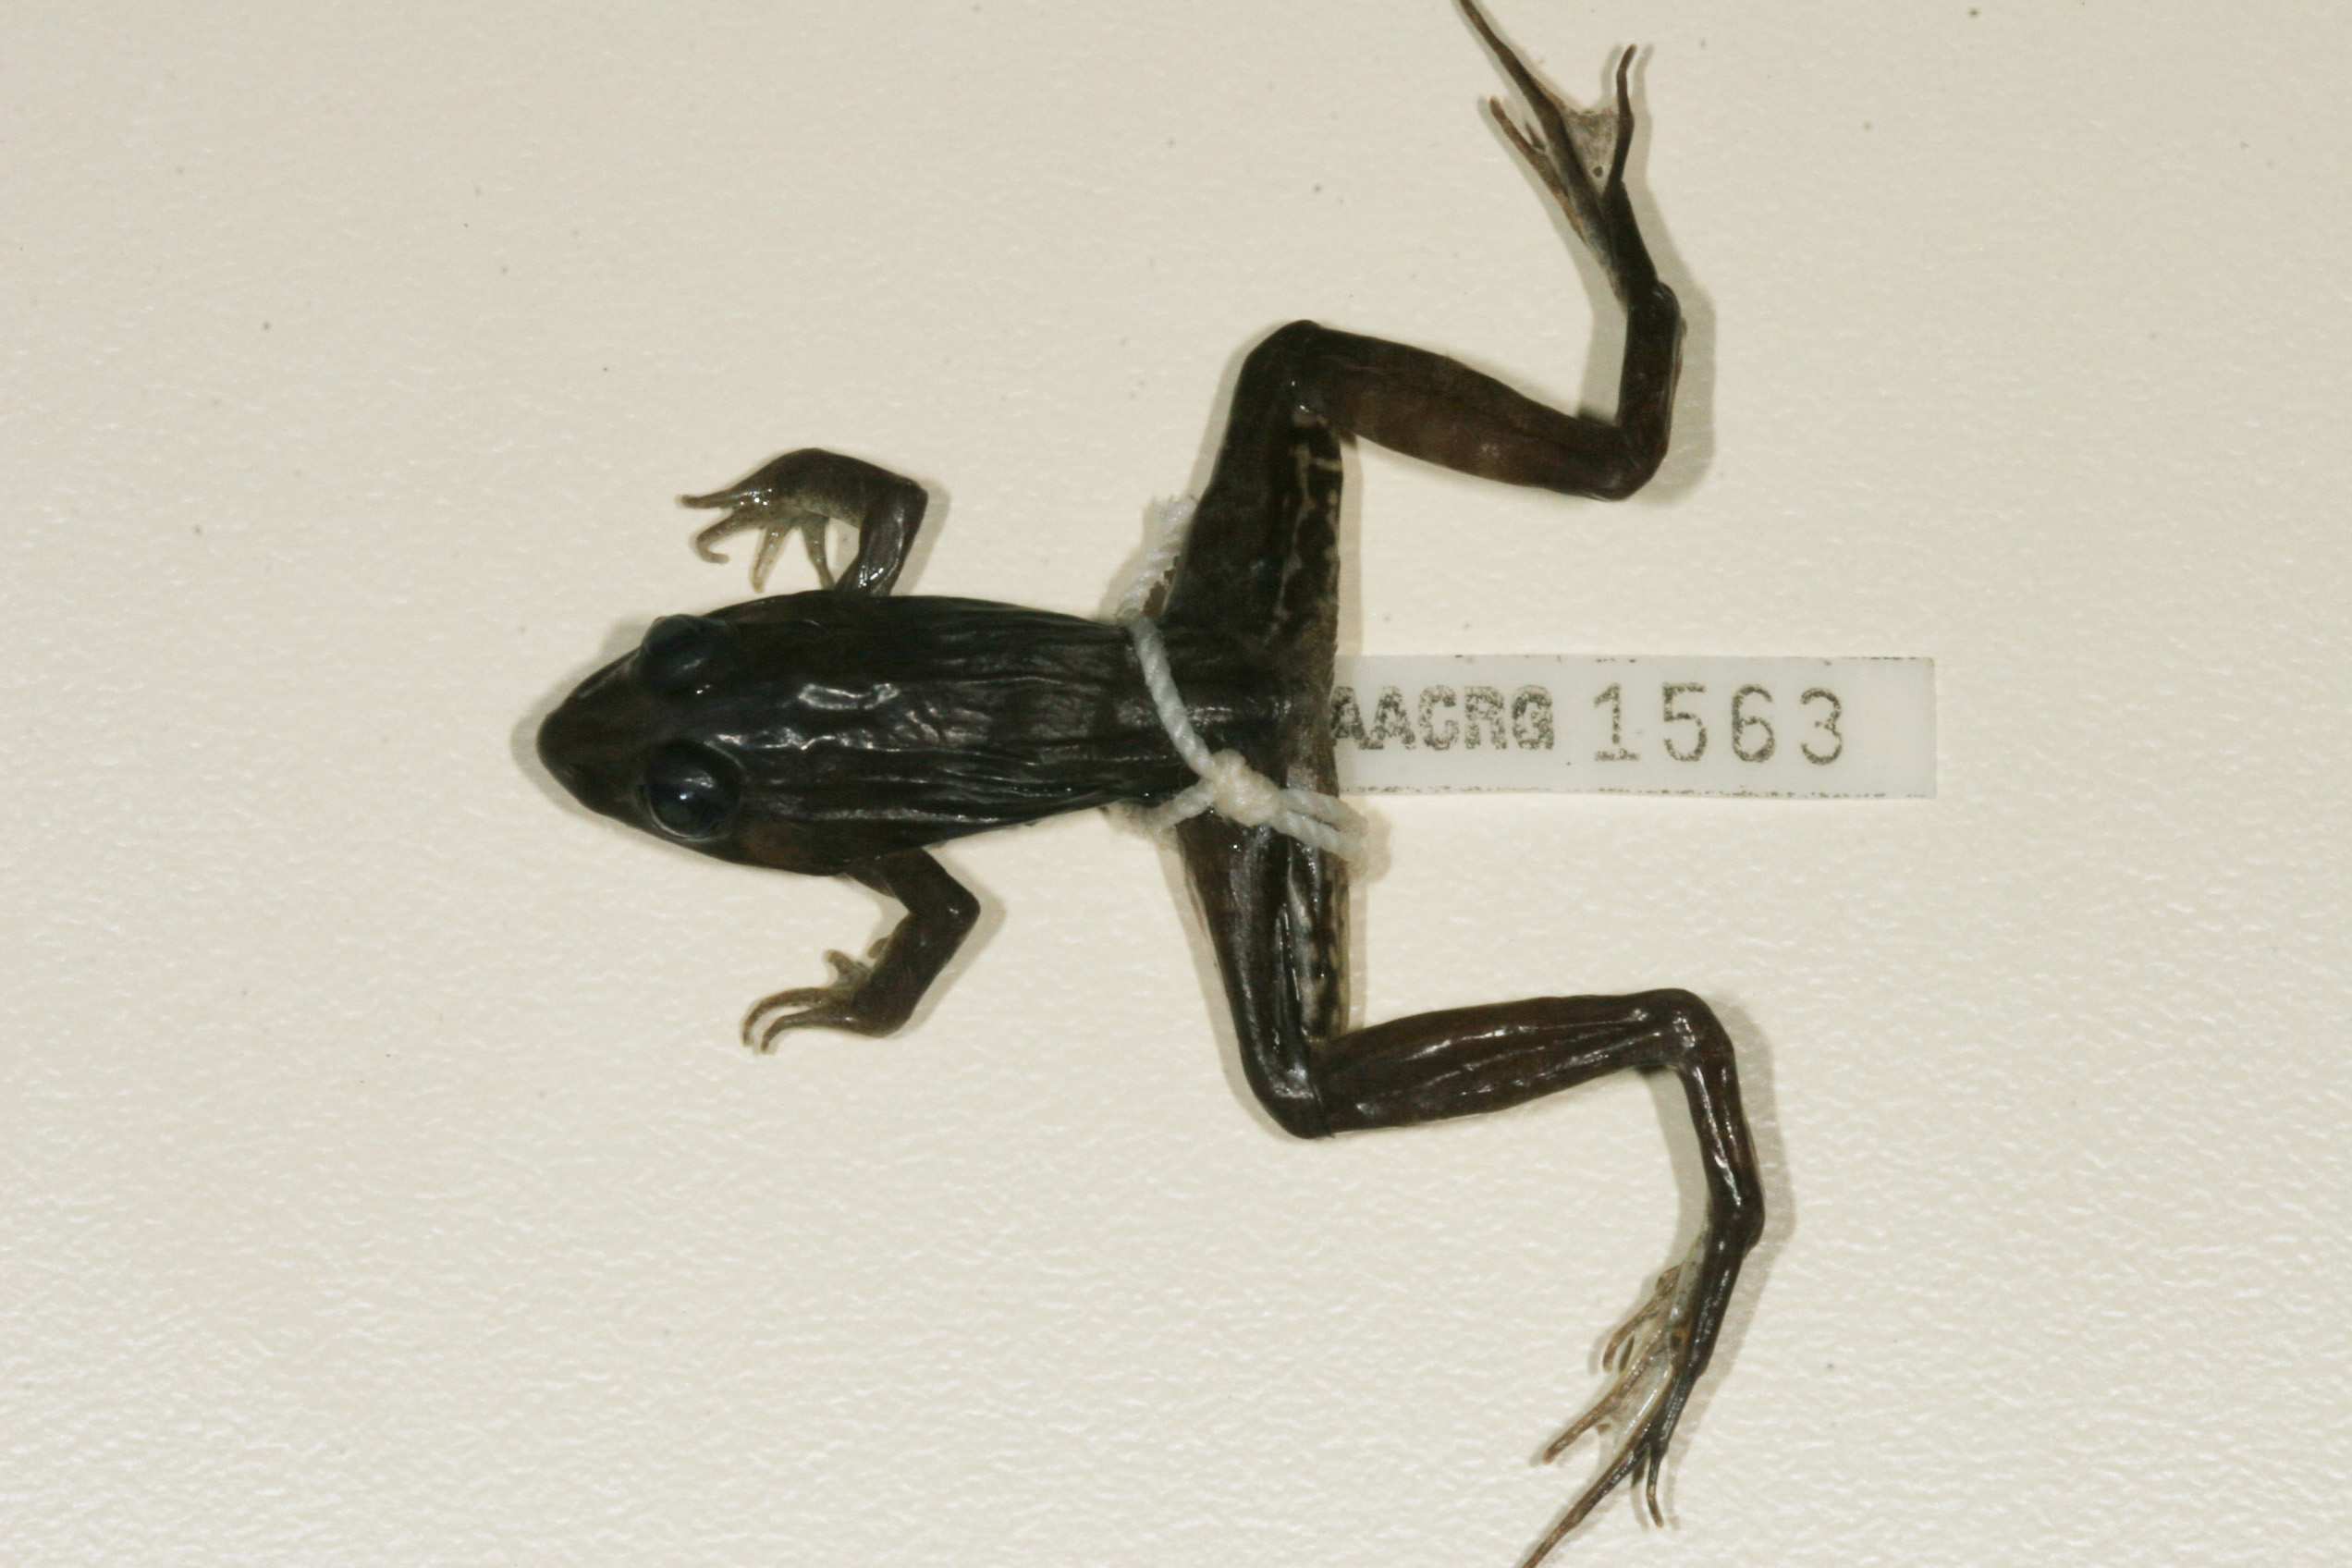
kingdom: Animalia
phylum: Chordata
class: Amphibia
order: Anura
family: Ptychadenidae
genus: Ptychadena
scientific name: Ptychadena mascareniensis
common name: Mascarene grass frog
